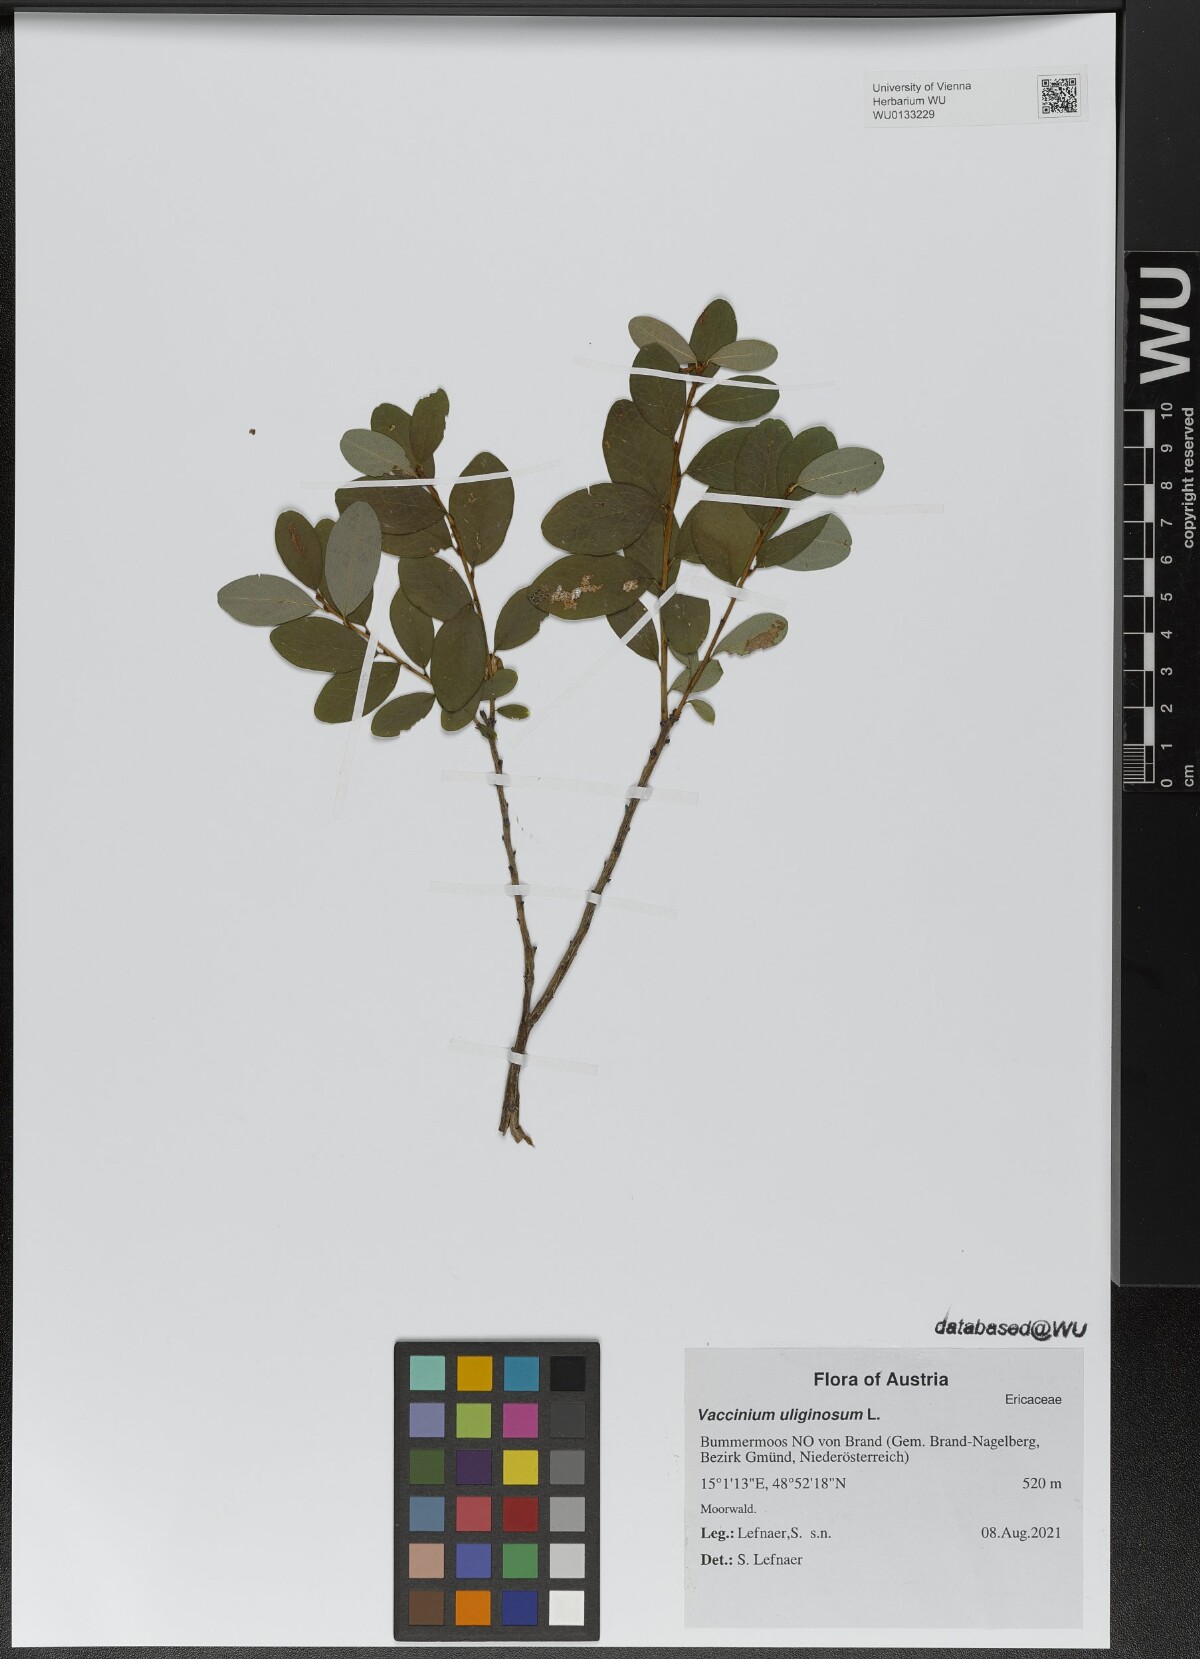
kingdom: Plantae
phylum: Tracheophyta
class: Magnoliopsida
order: Ericales
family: Ericaceae
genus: Vaccinium
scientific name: Vaccinium uliginosum
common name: Bog bilberry
